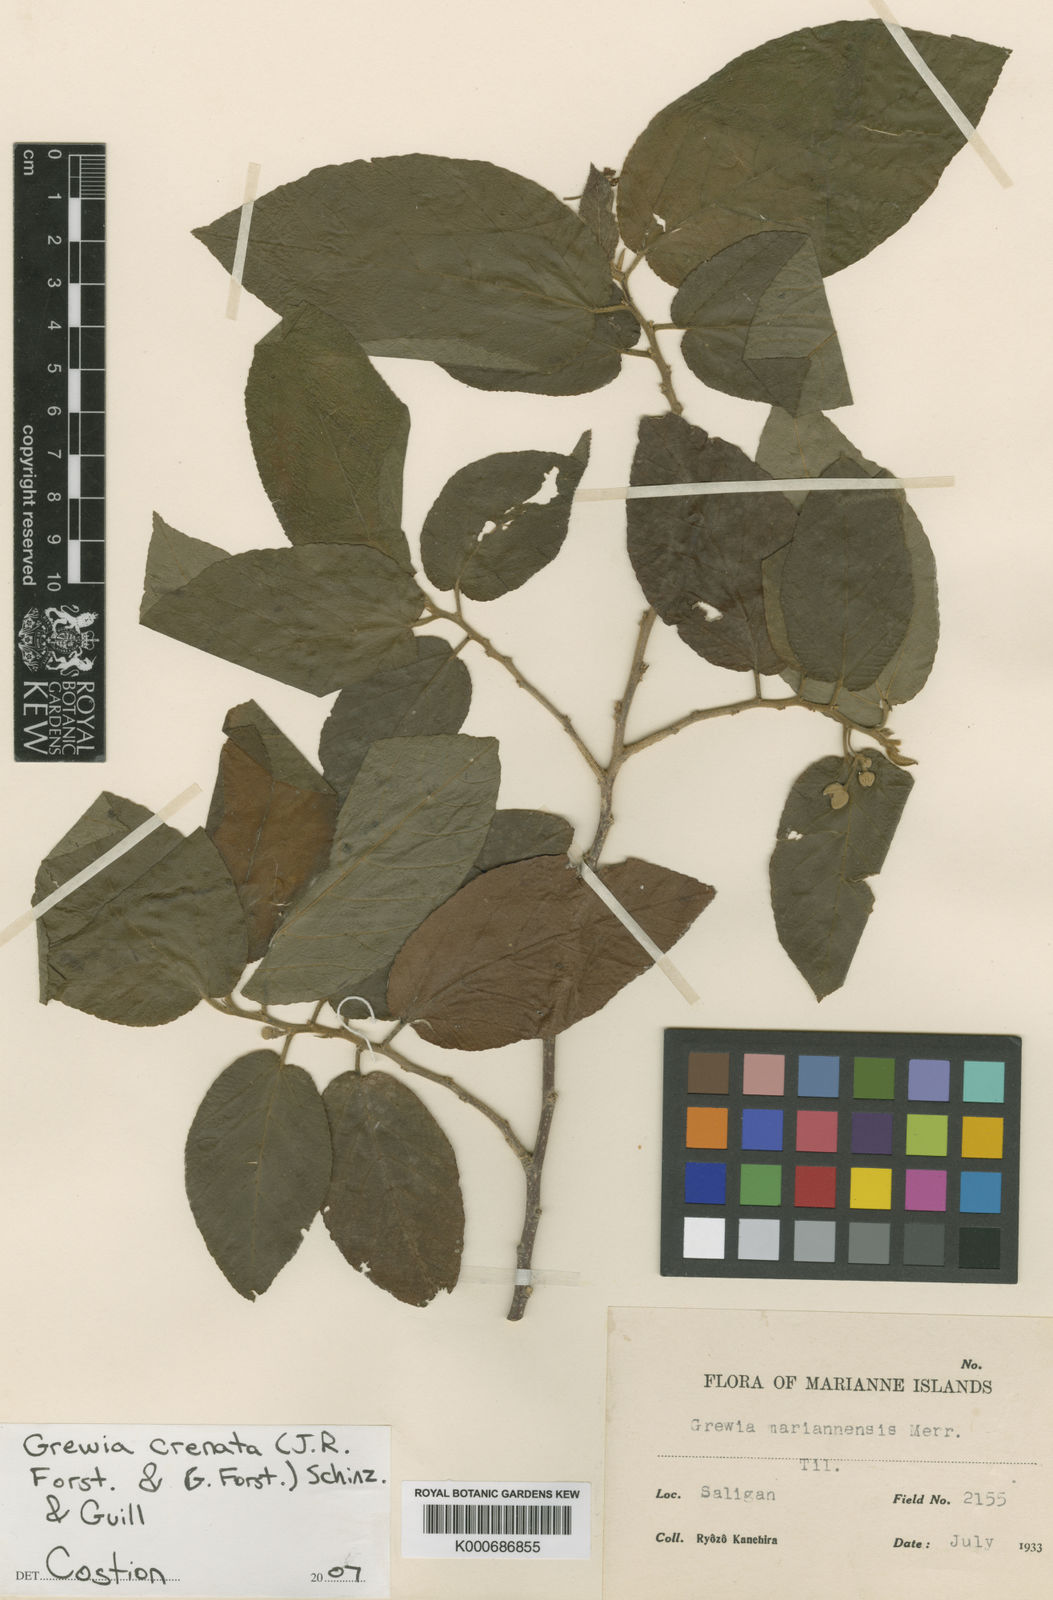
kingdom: Plantae
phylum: Tracheophyta
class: Magnoliopsida
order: Malvales
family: Malvaceae
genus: Grewia
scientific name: Grewia crenata
